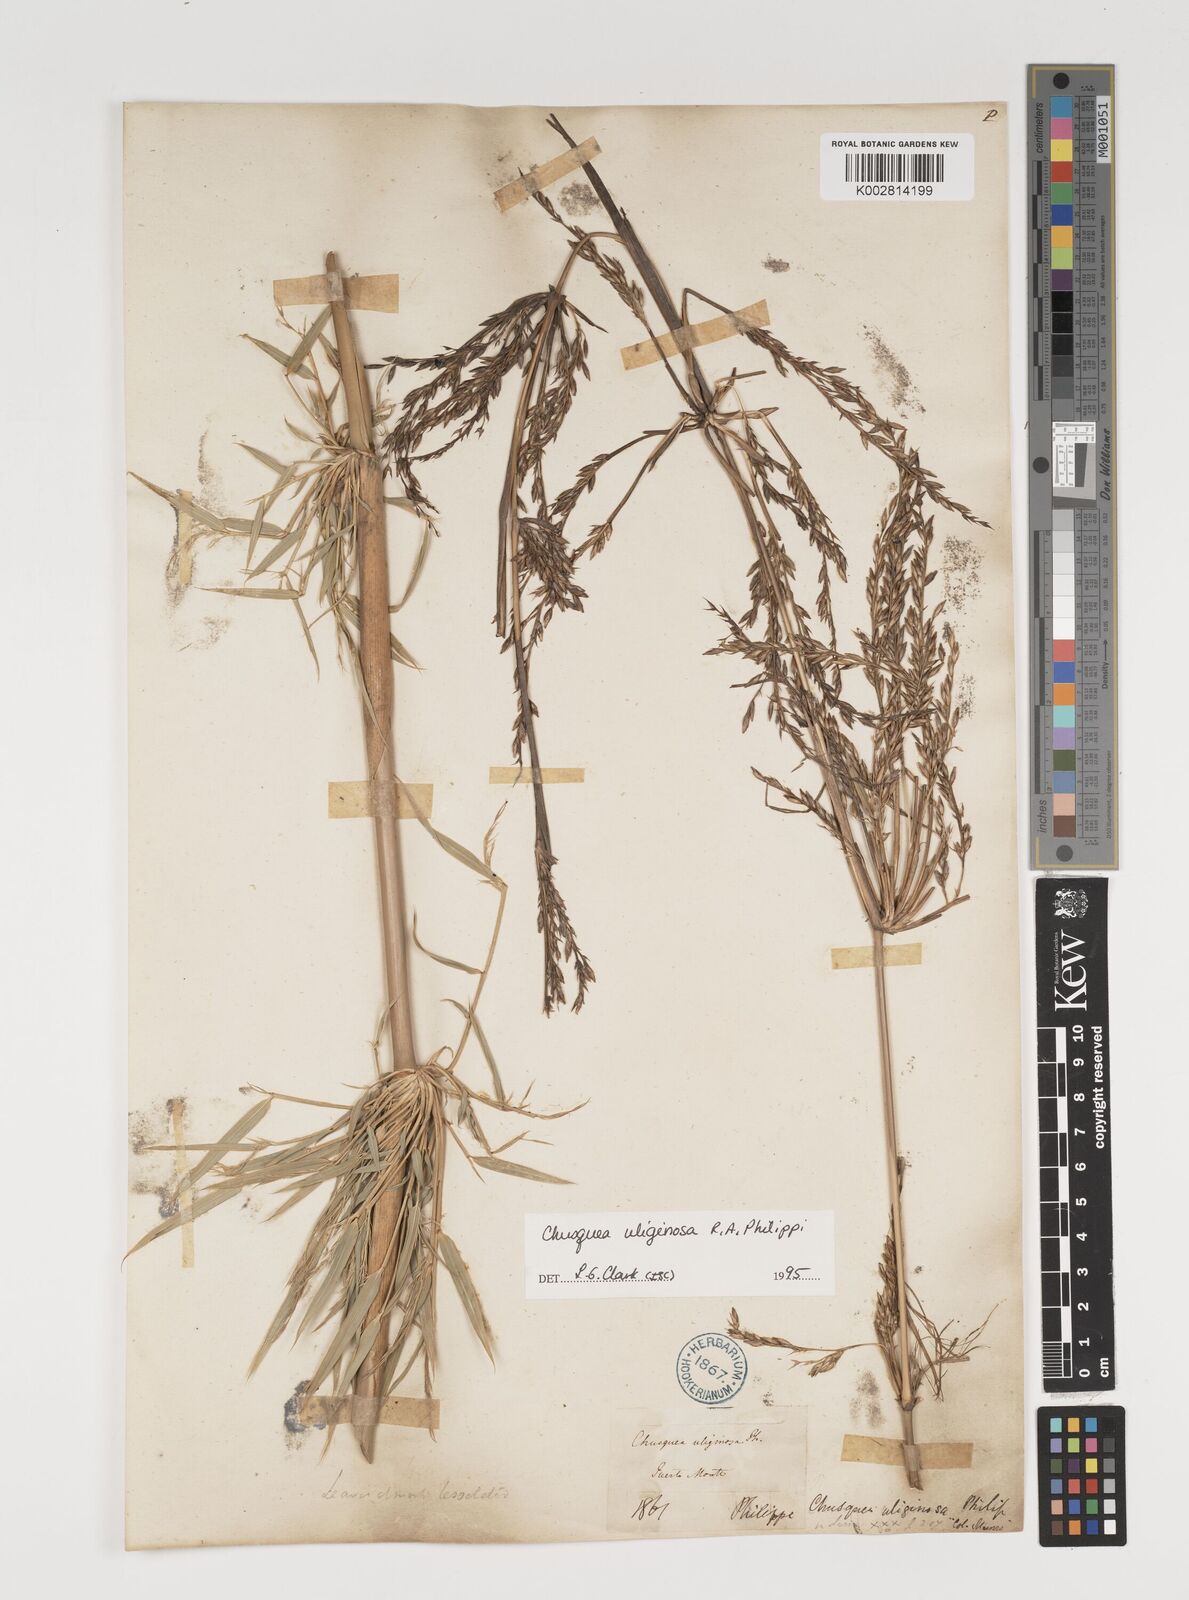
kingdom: Plantae
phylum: Tracheophyta
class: Liliopsida
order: Poales
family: Poaceae
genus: Chusquea
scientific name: Chusquea uliginosa
